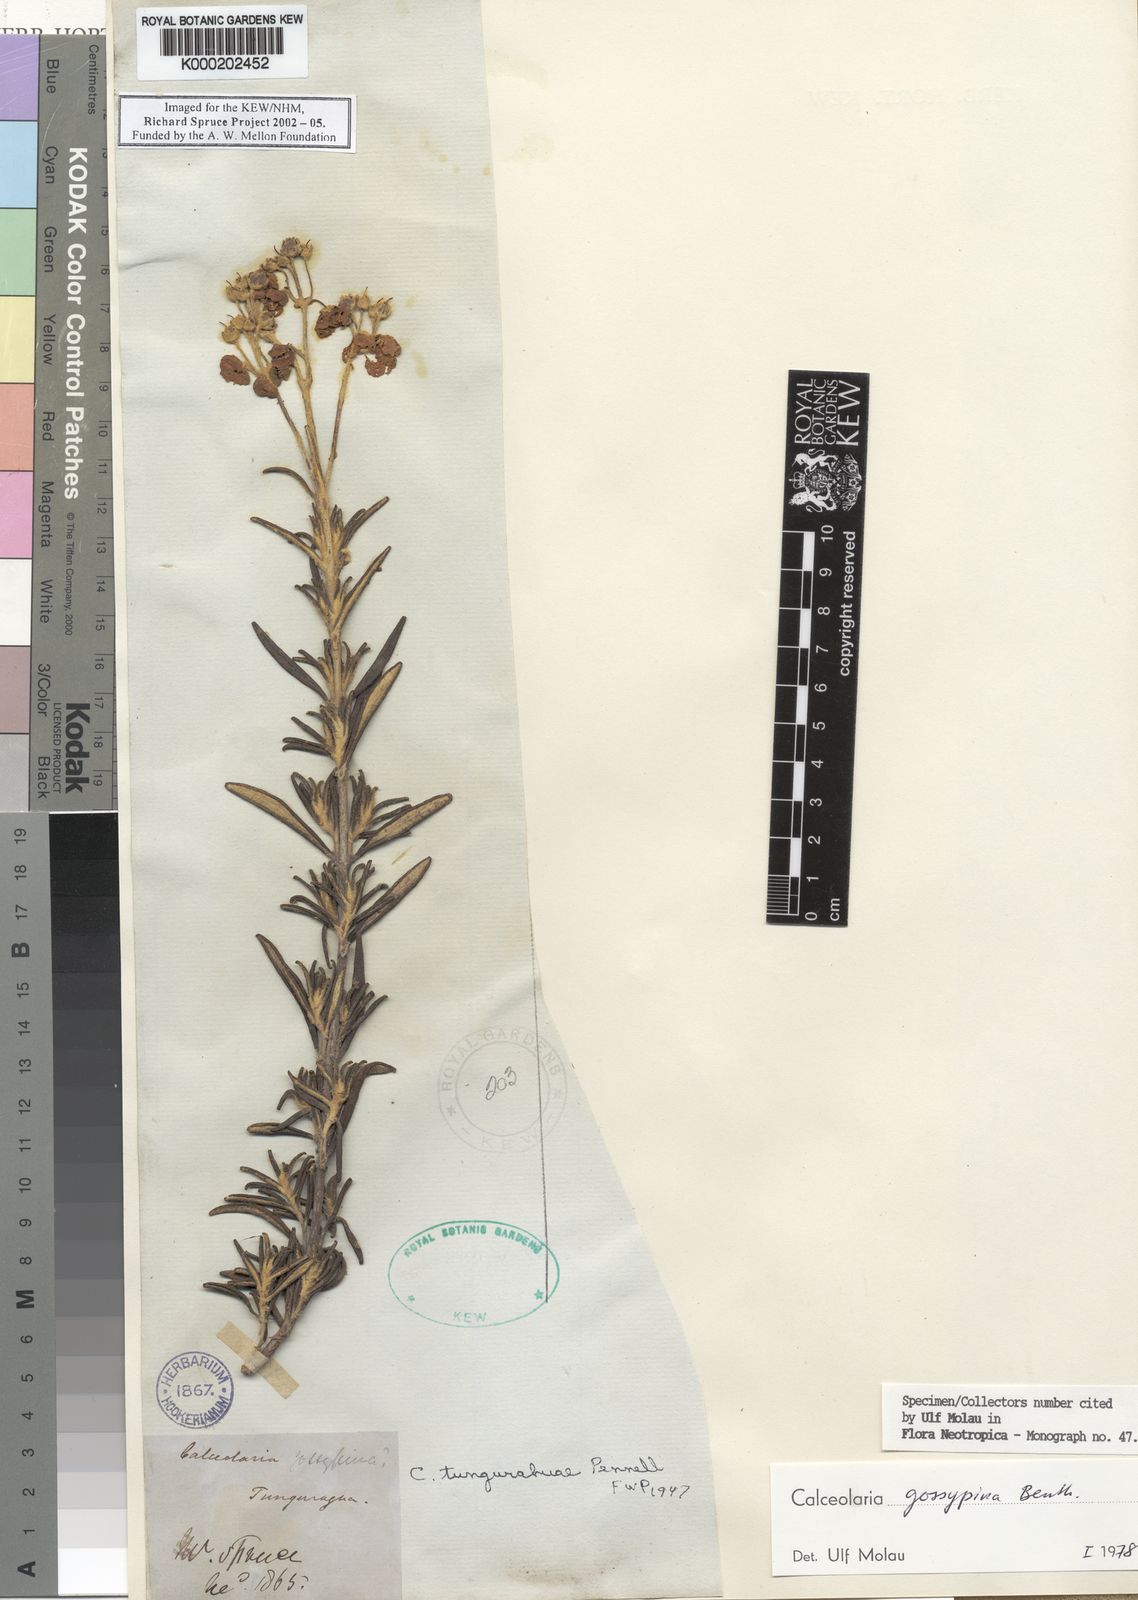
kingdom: Plantae
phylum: Tracheophyta
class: Magnoliopsida
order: Lamiales
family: Calceolariaceae
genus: Calceolaria
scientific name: Calceolaria gossypina
